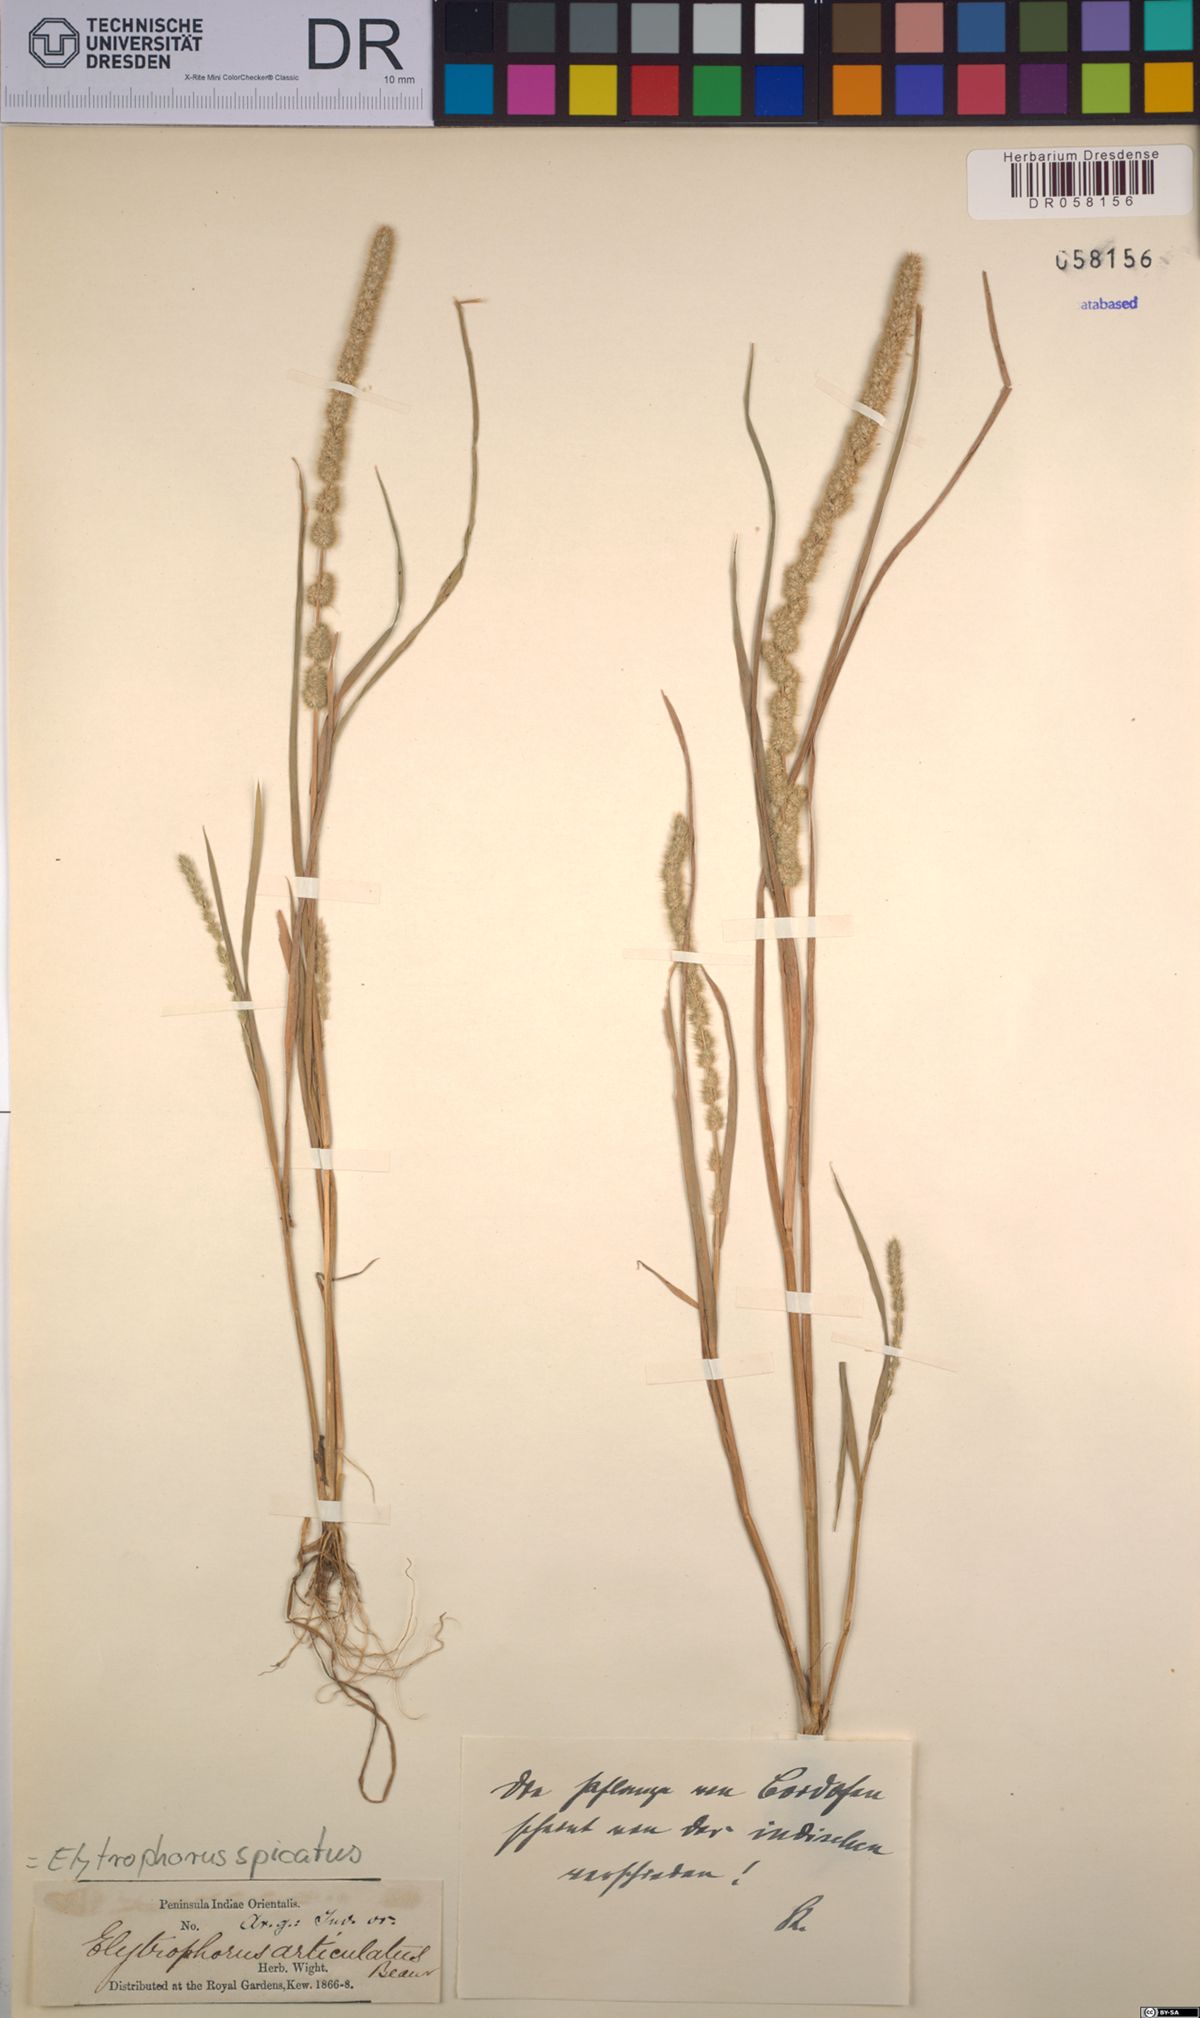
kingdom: Plantae
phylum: Tracheophyta
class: Liliopsida
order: Poales
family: Poaceae
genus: Elytrophorus
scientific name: Elytrophorus spicatus
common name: Spike grass
